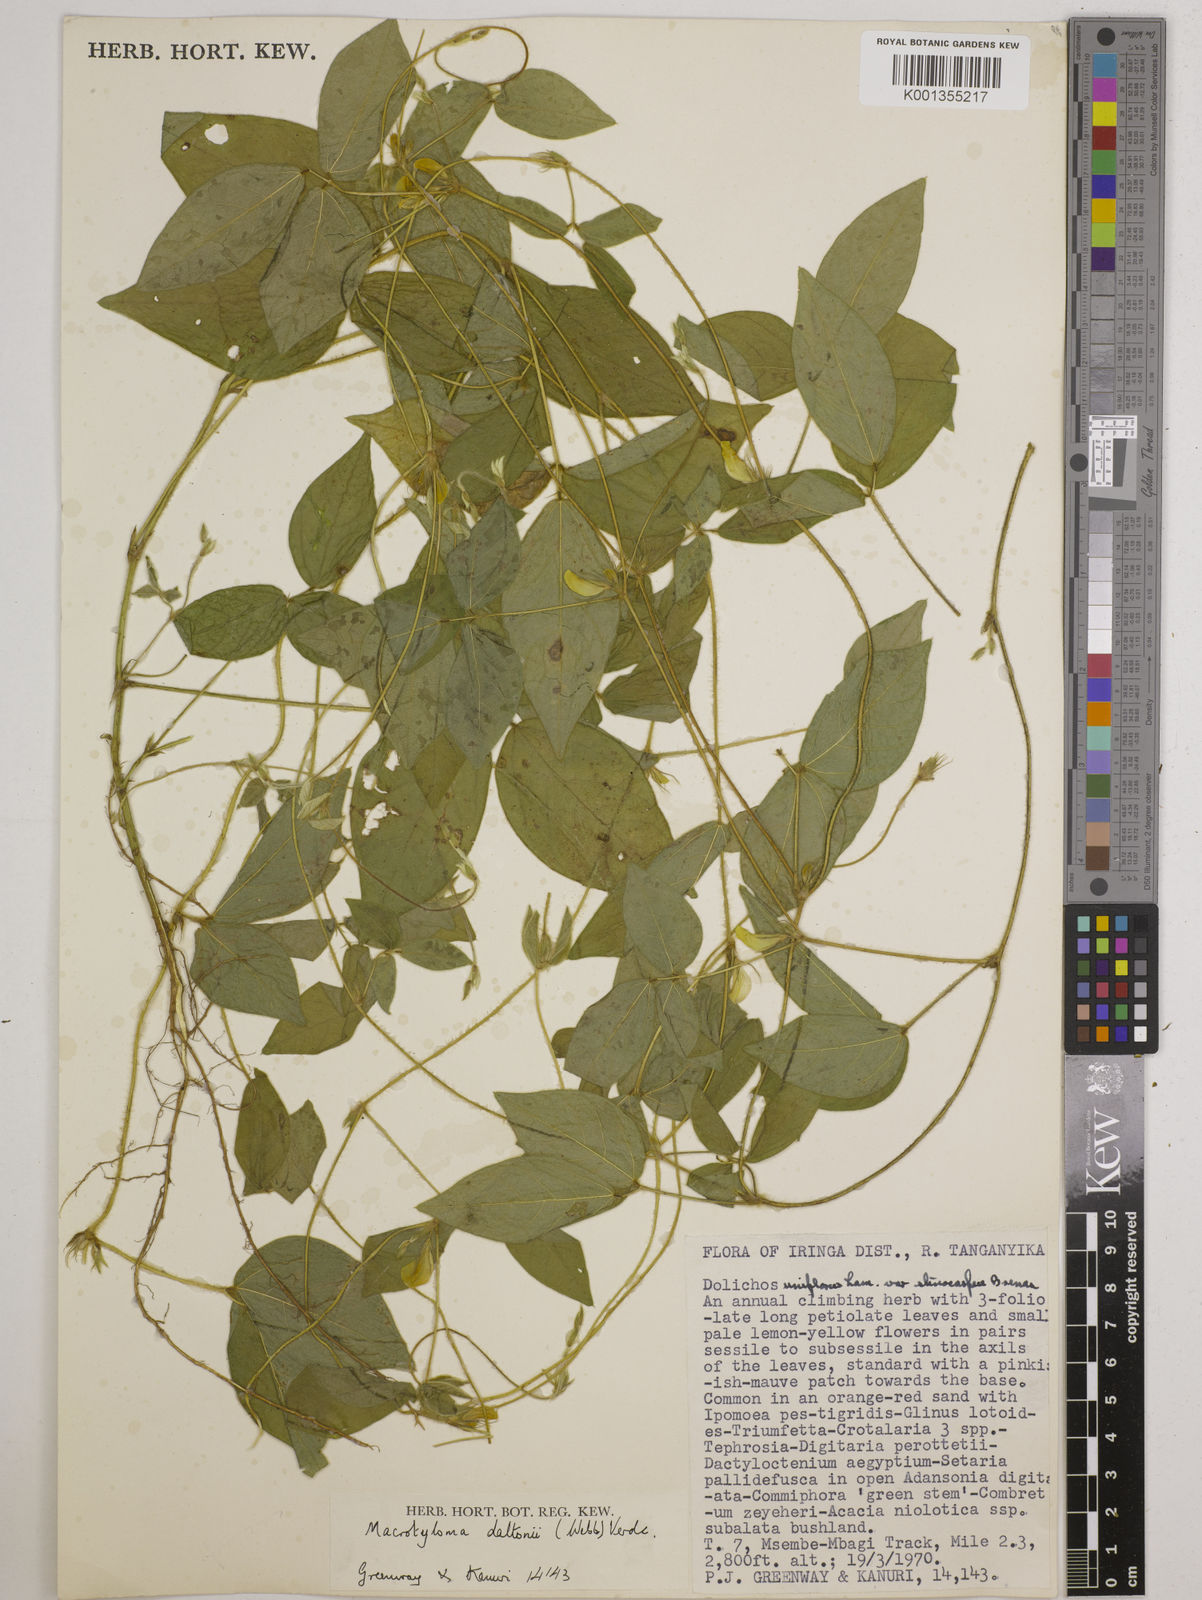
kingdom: Plantae
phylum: Tracheophyta
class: Magnoliopsida
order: Fabales
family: Fabaceae
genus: Macrotyloma
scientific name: Macrotyloma daltonii
